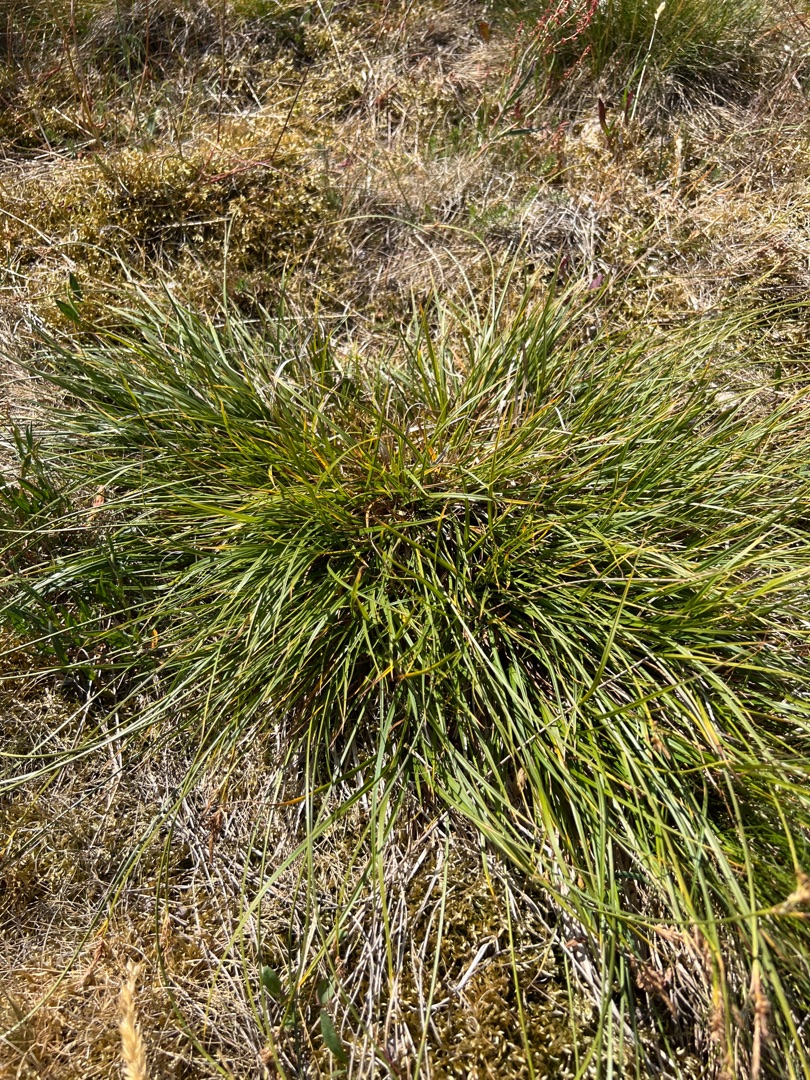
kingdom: Plantae
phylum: Tracheophyta
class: Liliopsida
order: Poales
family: Cyperaceae
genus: Carex
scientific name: Carex pilulifera
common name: Pille-star
